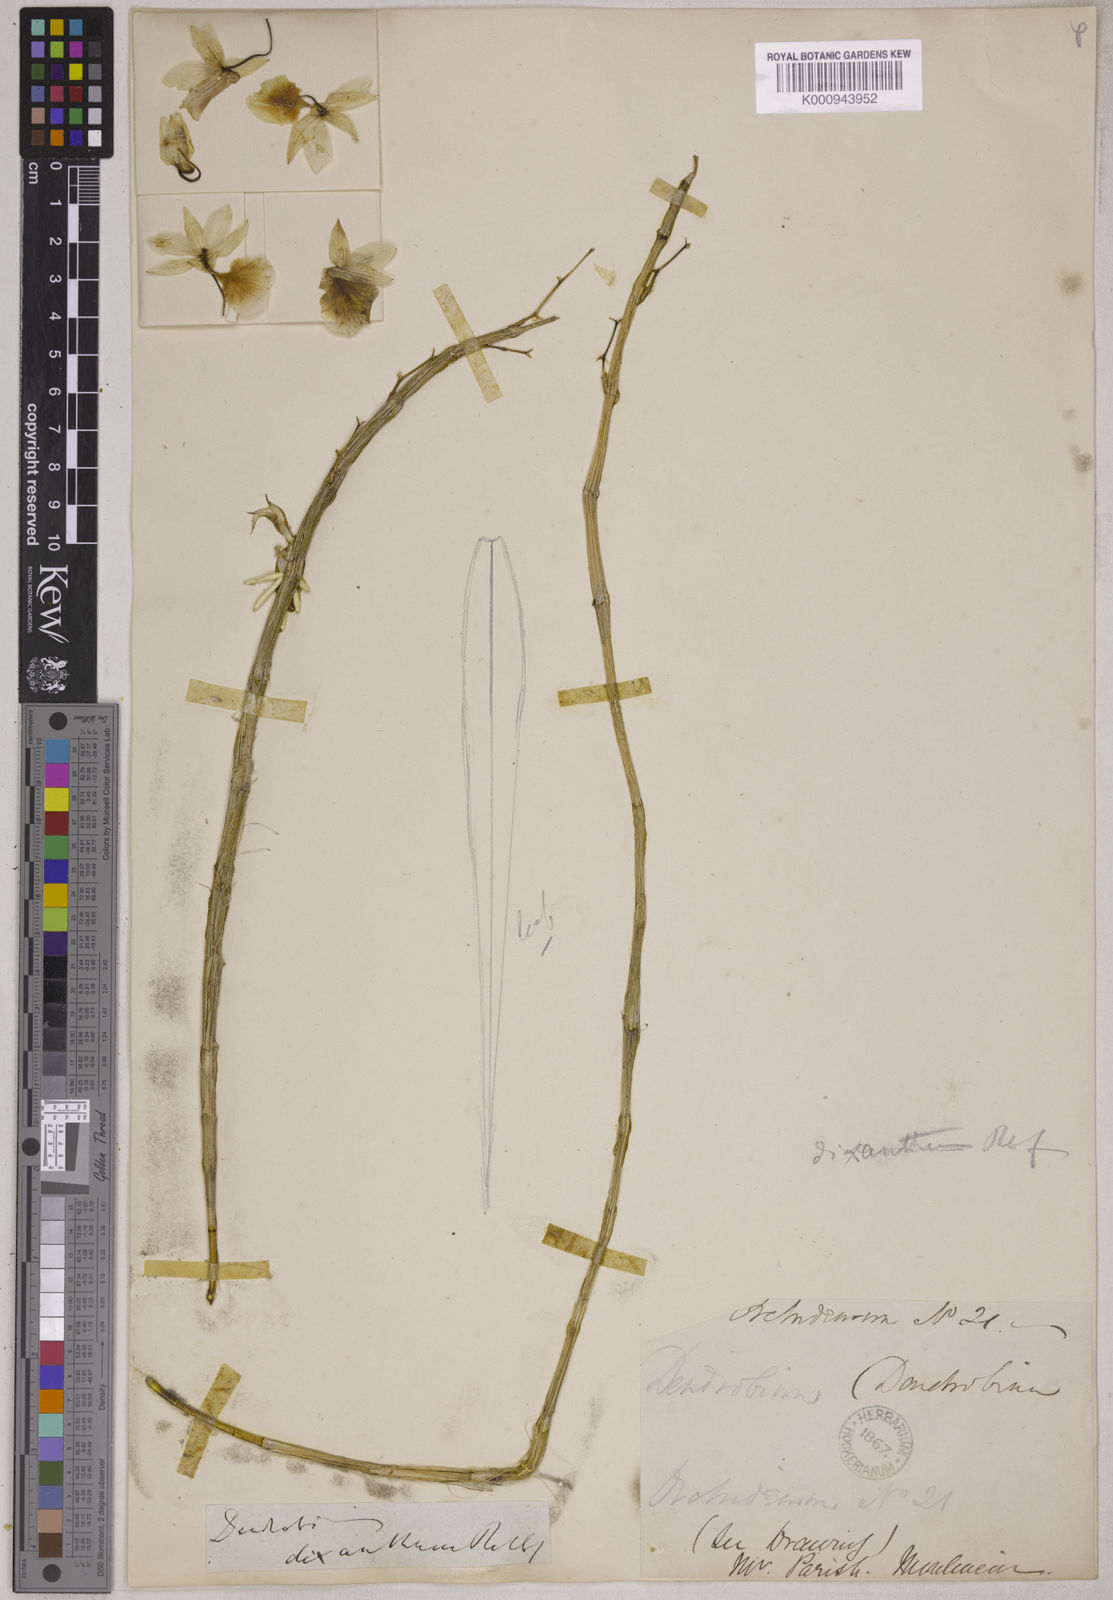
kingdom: Plantae
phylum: Tracheophyta
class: Liliopsida
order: Asparagales
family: Orchidaceae
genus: Dendrobium
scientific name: Dendrobium dixanthum
